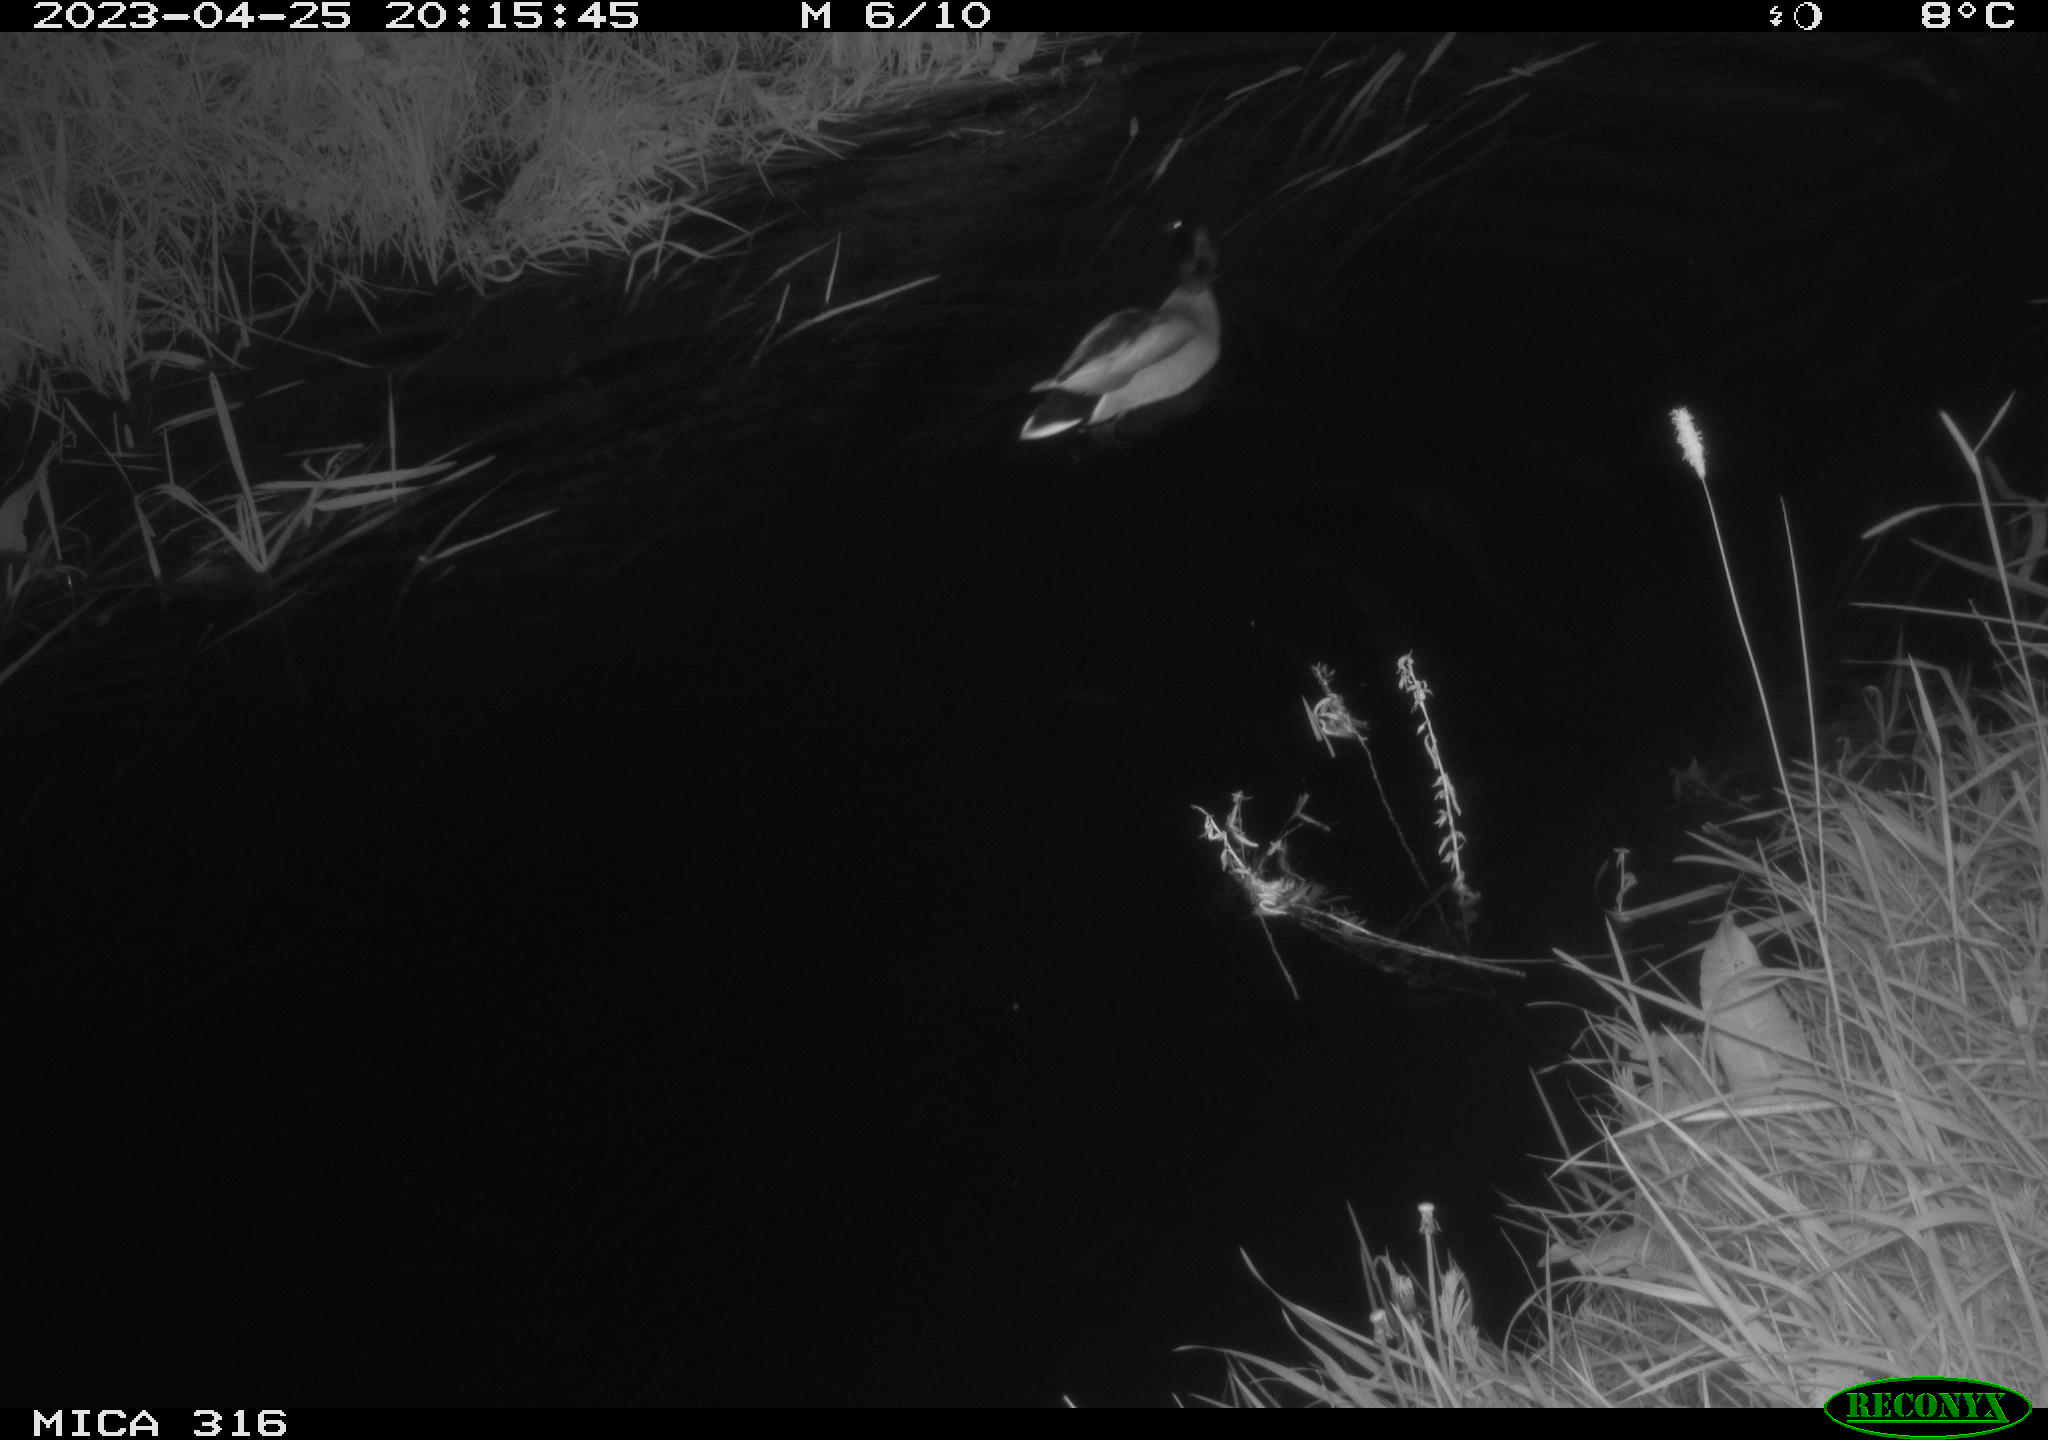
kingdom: Animalia
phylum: Chordata
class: Aves
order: Anseriformes
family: Anatidae
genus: Anas
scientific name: Anas
